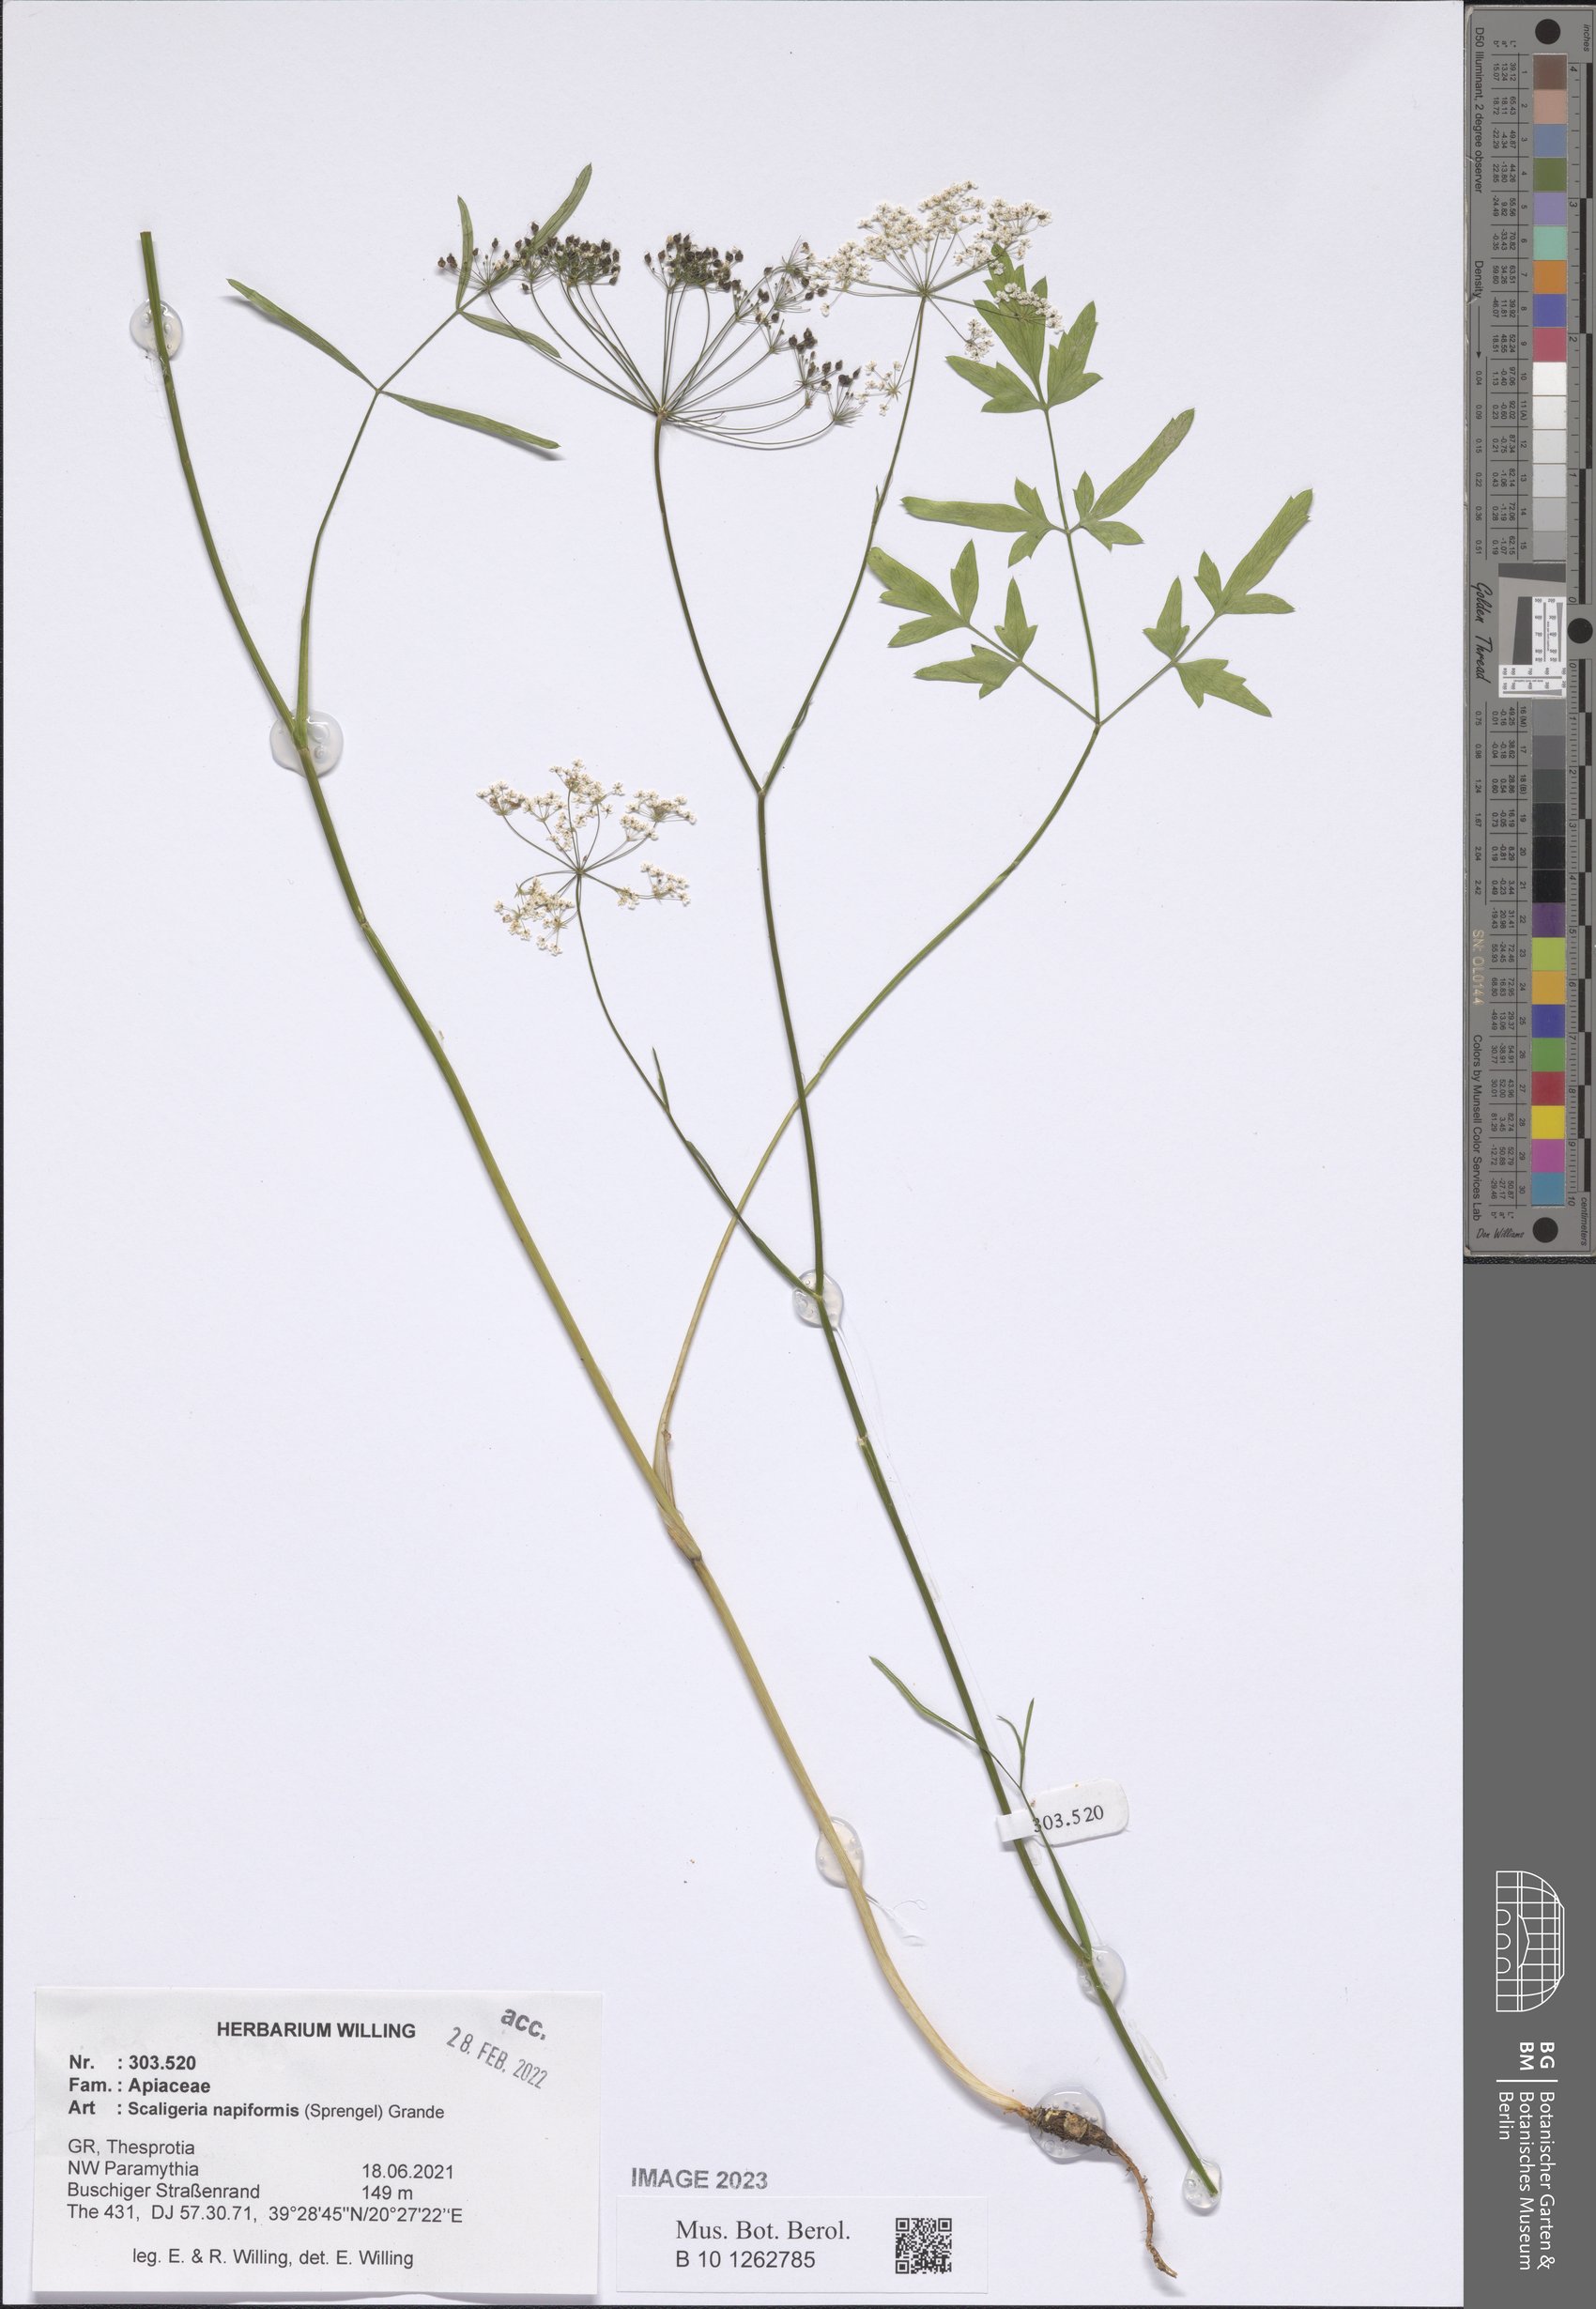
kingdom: Plantae
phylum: Tracheophyta
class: Magnoliopsida
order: Apiales
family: Apiaceae
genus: Scaligeria
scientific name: Scaligeria napiformis
